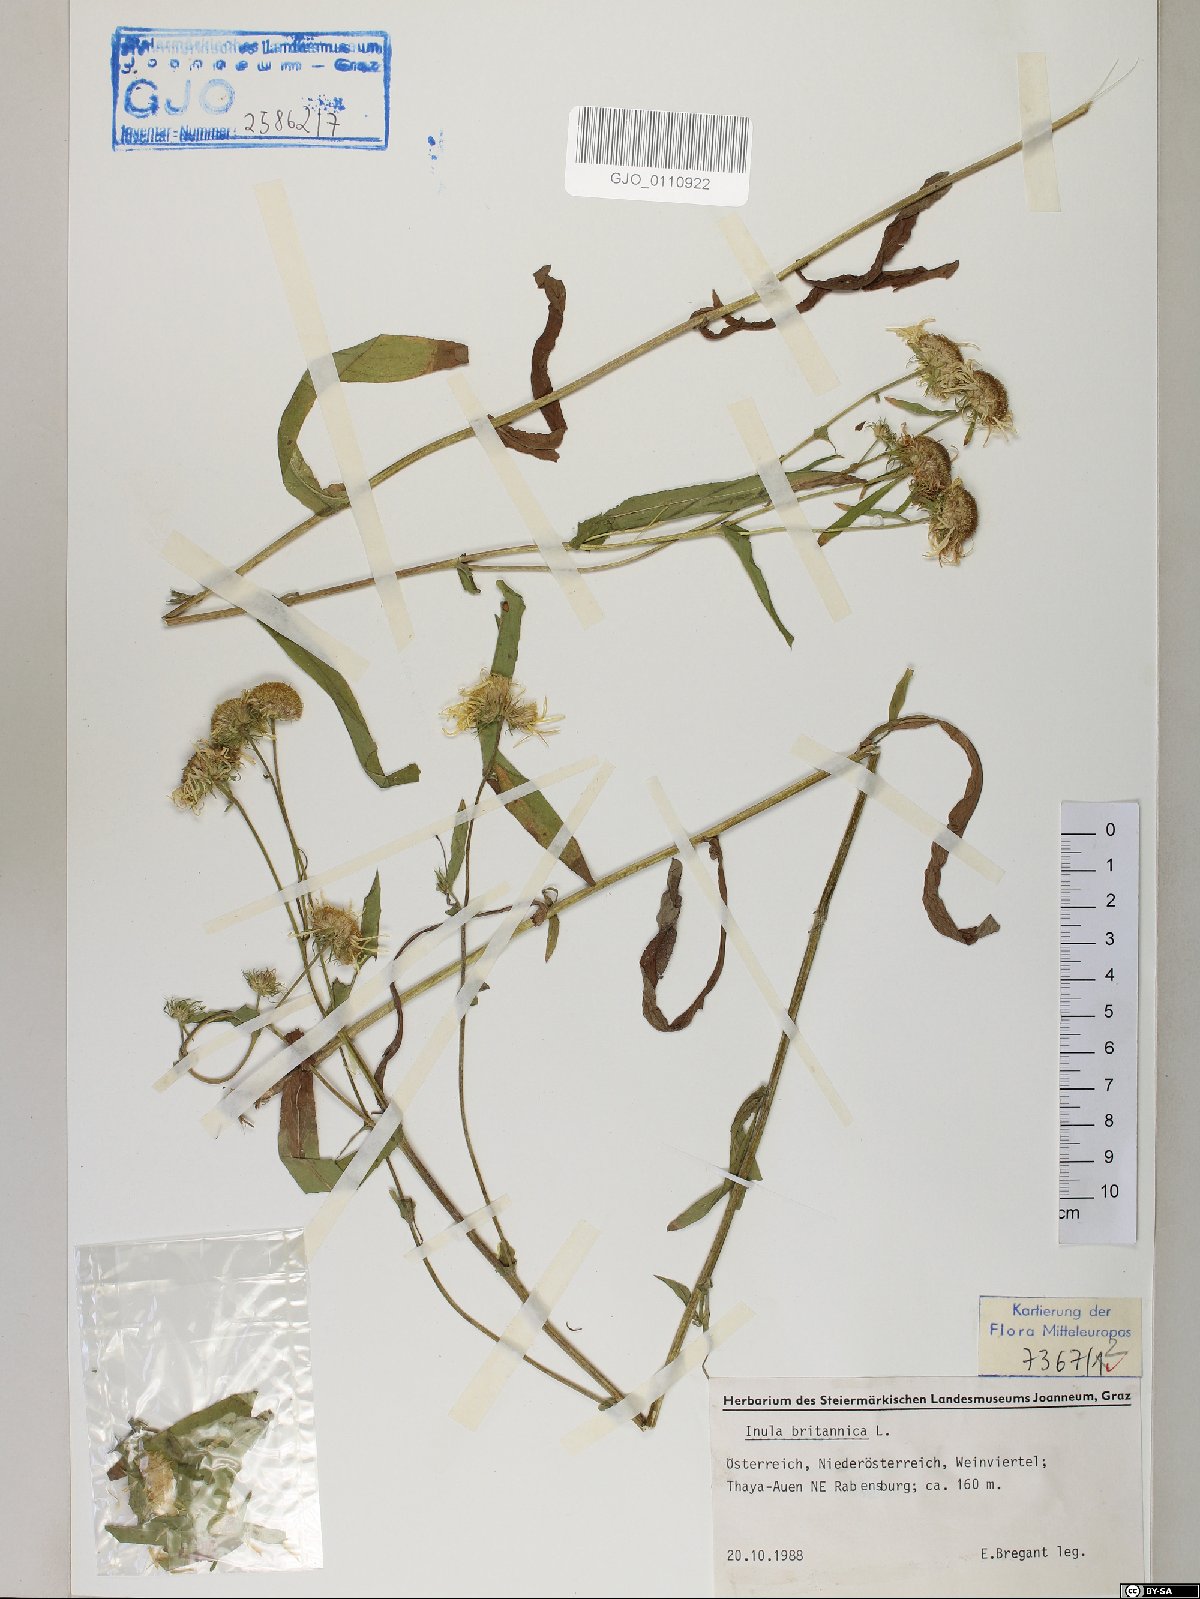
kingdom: Plantae
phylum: Tracheophyta
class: Magnoliopsida
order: Asterales
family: Asteraceae
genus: Pentanema
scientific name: Pentanema britannicum
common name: British elecampane
